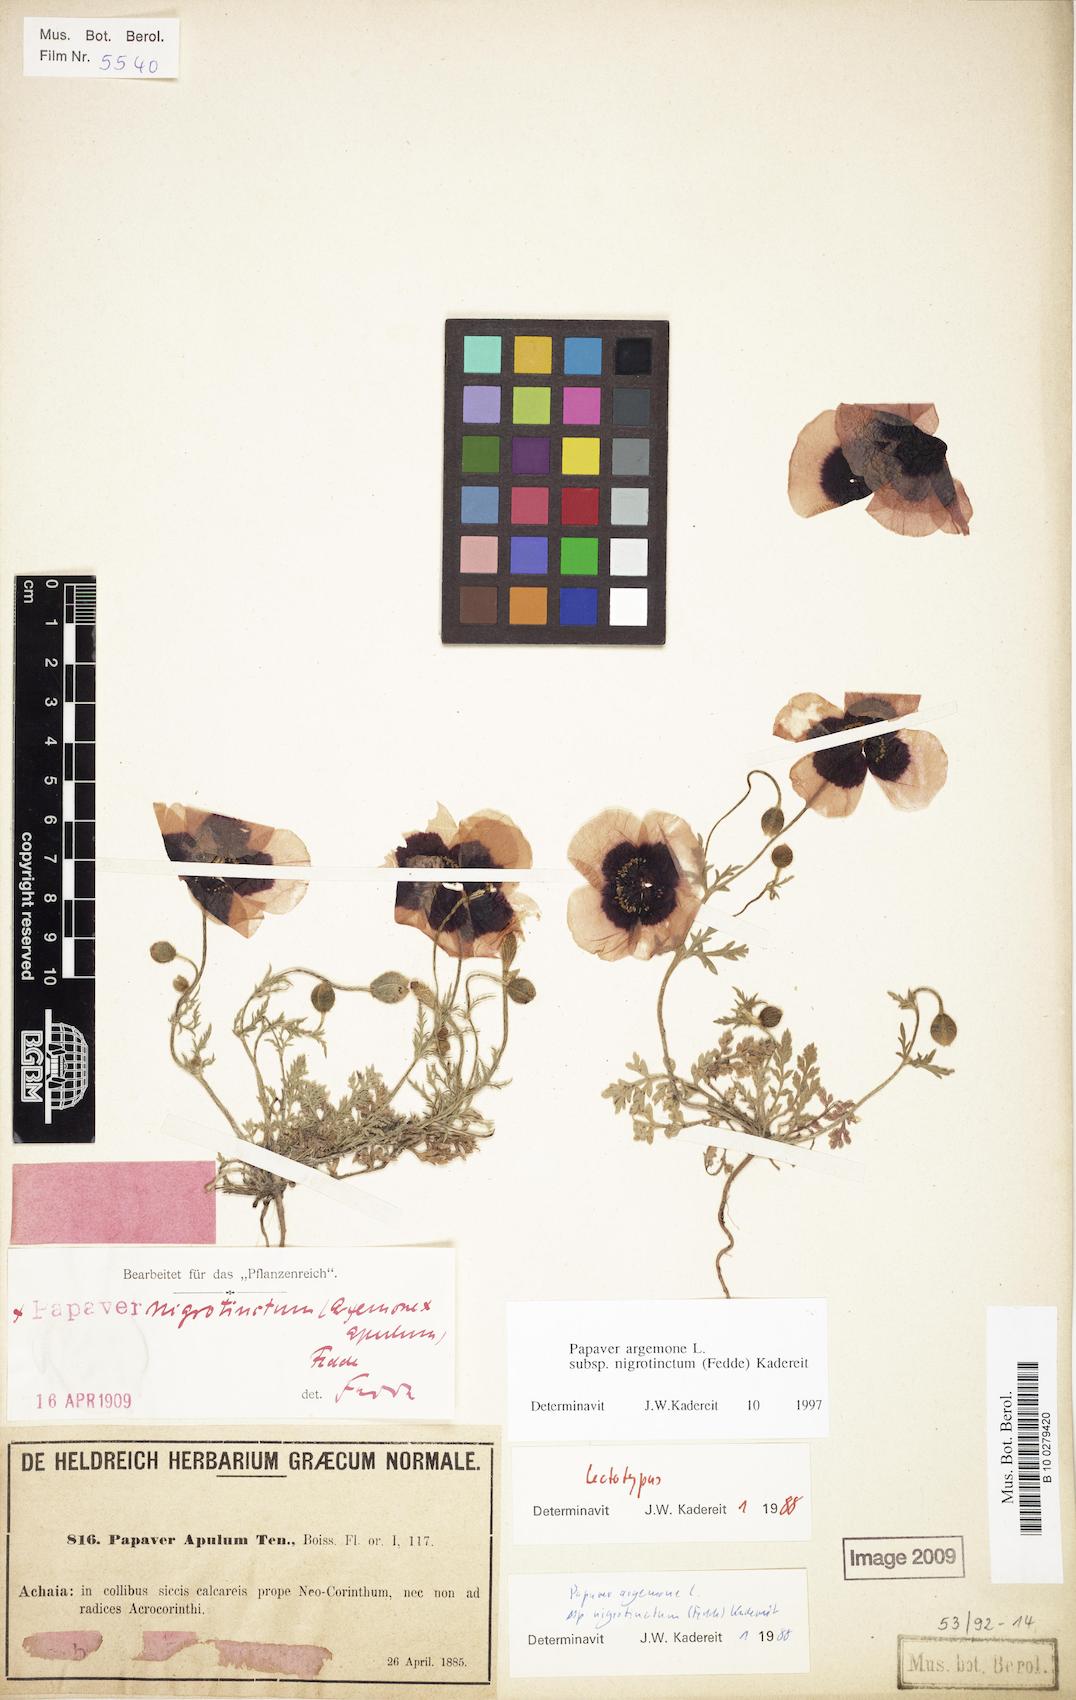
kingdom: Plantae
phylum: Tracheophyta
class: Magnoliopsida
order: Ranunculales
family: Papaveraceae
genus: Roemeria
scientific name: Roemeria nigrotincta
